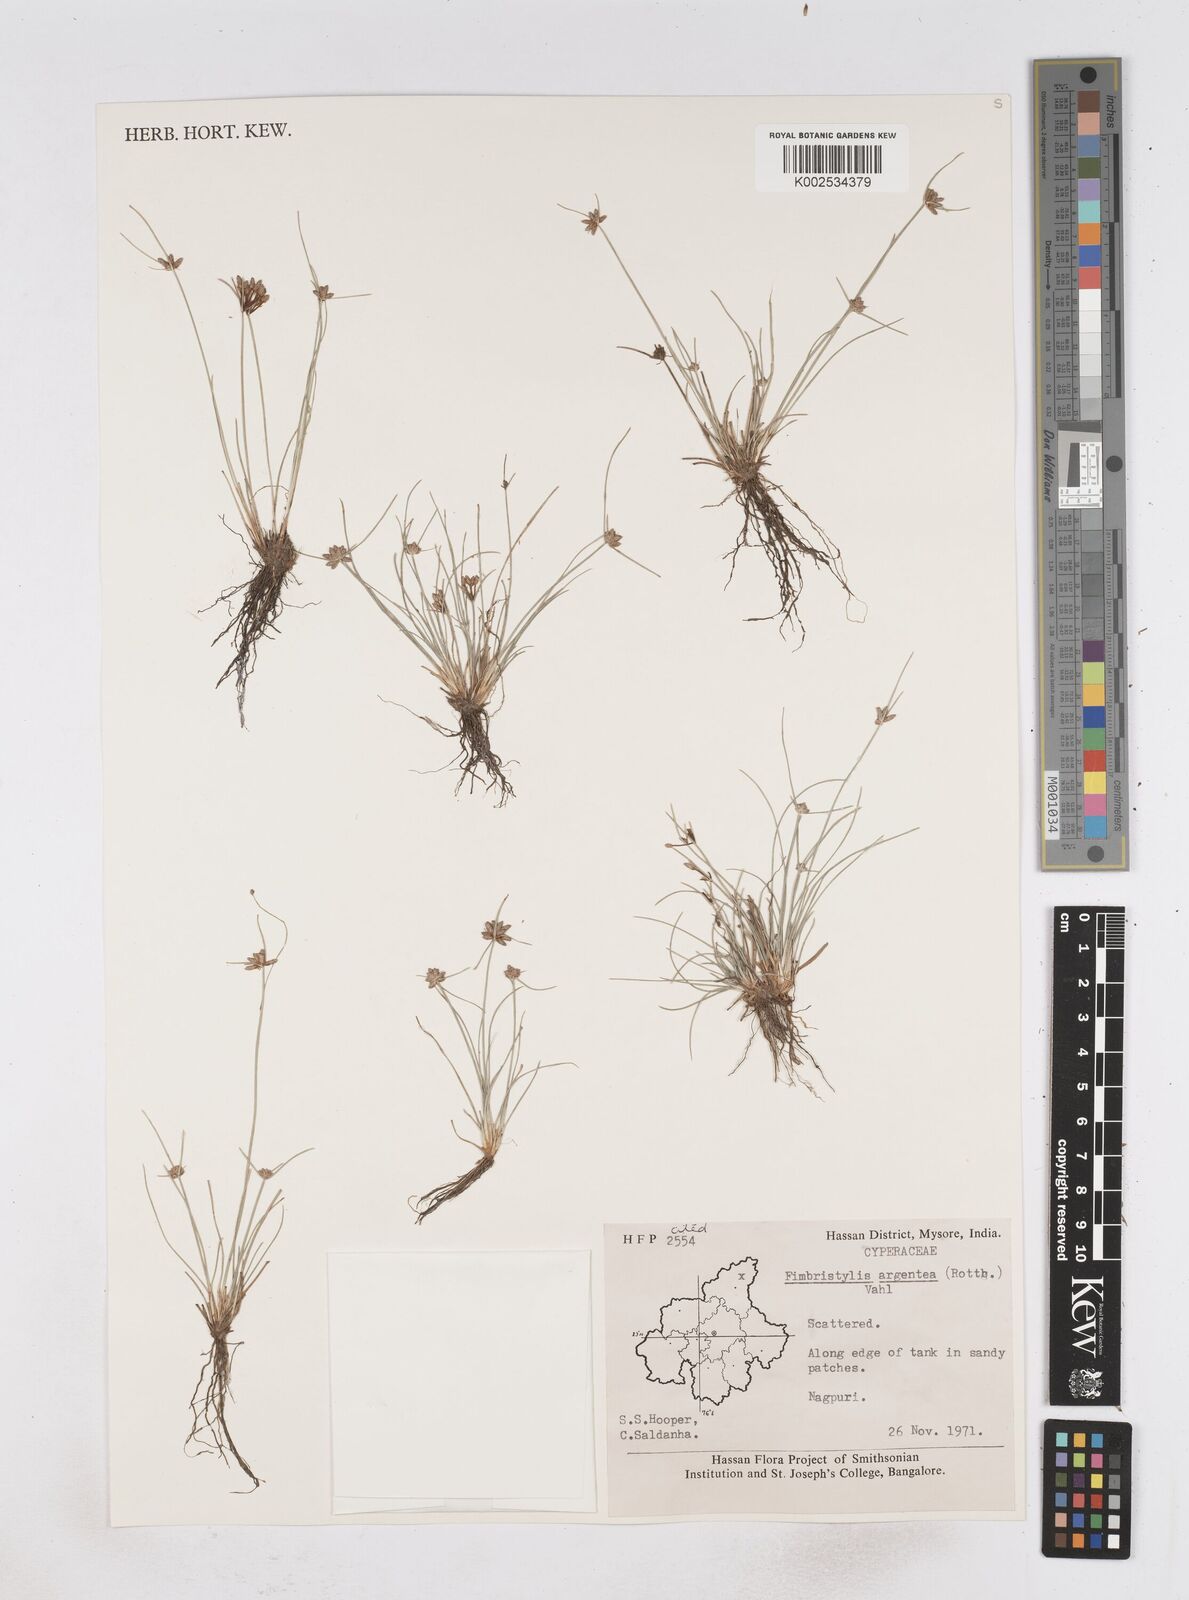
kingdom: Plantae
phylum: Tracheophyta
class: Liliopsida
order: Poales
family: Cyperaceae
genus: Fimbristylis
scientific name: Fimbristylis argentea
